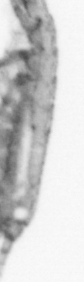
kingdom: Animalia
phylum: Arthropoda
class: Copepoda
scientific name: Copepoda
